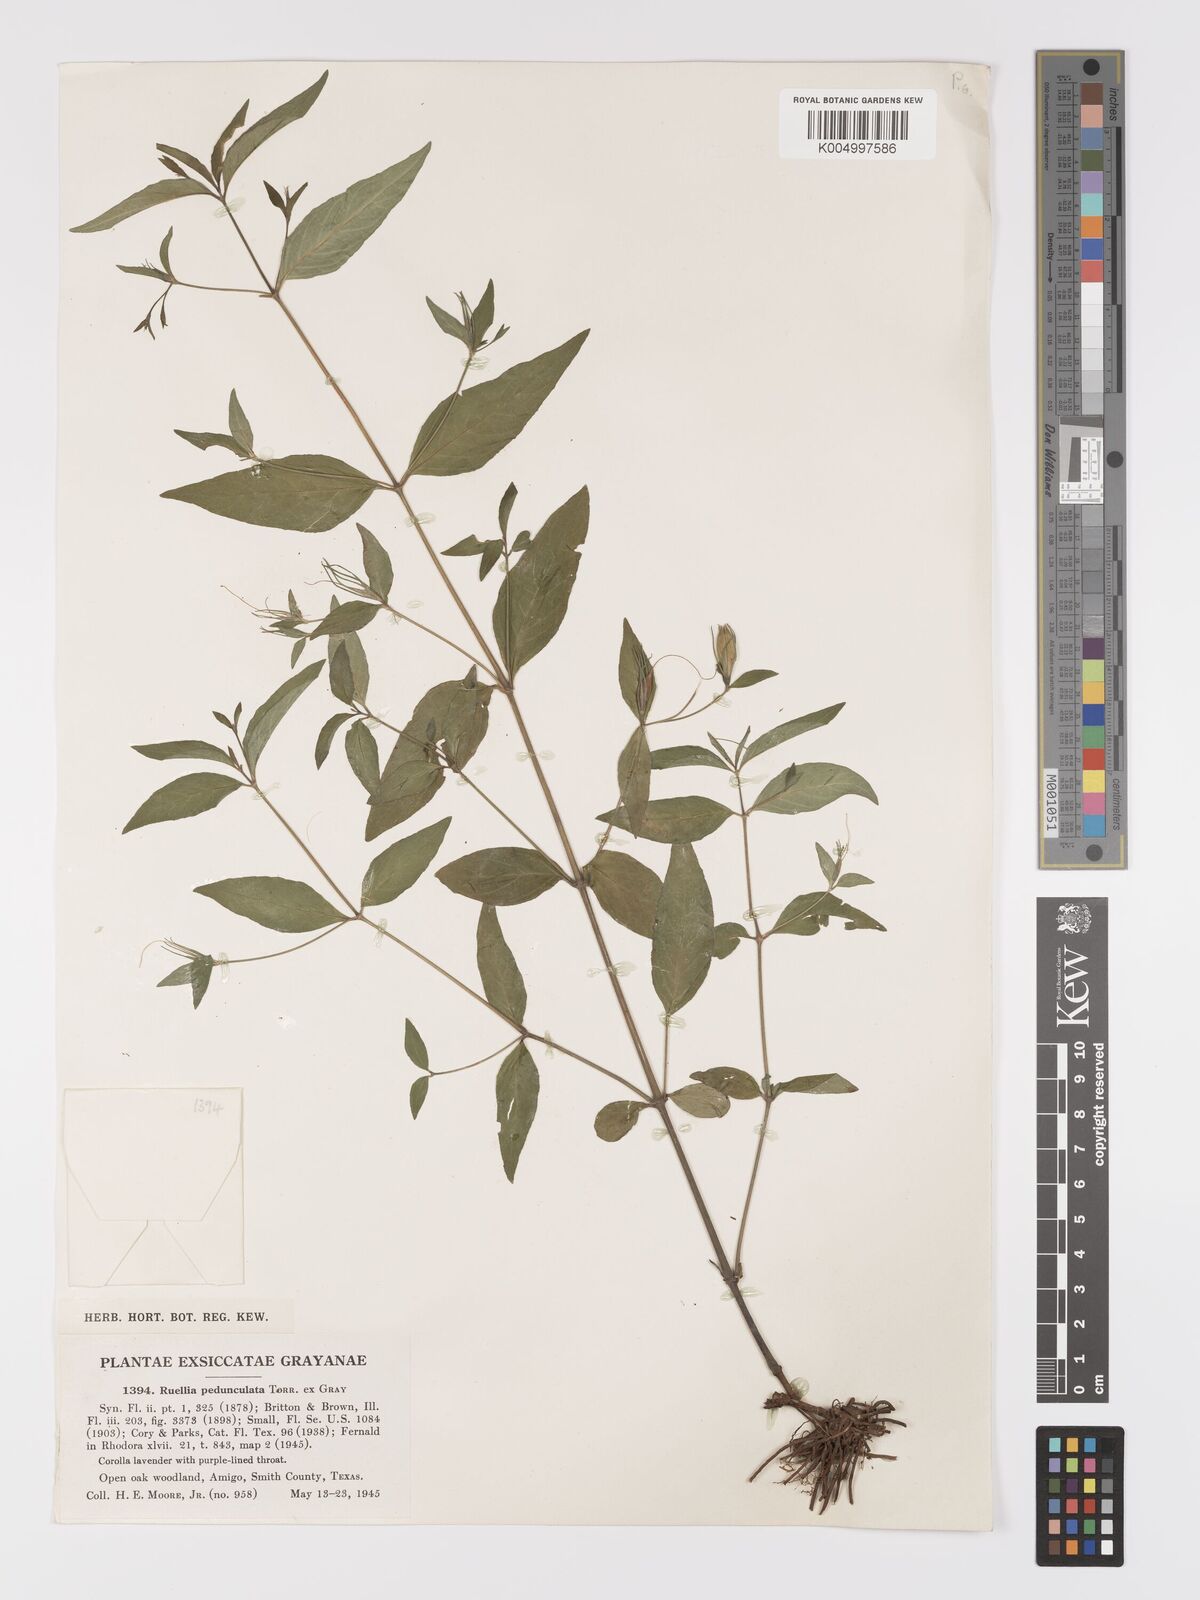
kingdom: Plantae
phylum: Tracheophyta
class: Magnoliopsida
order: Lamiales
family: Acanthaceae
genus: Ruellia
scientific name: Ruellia pedunculata
